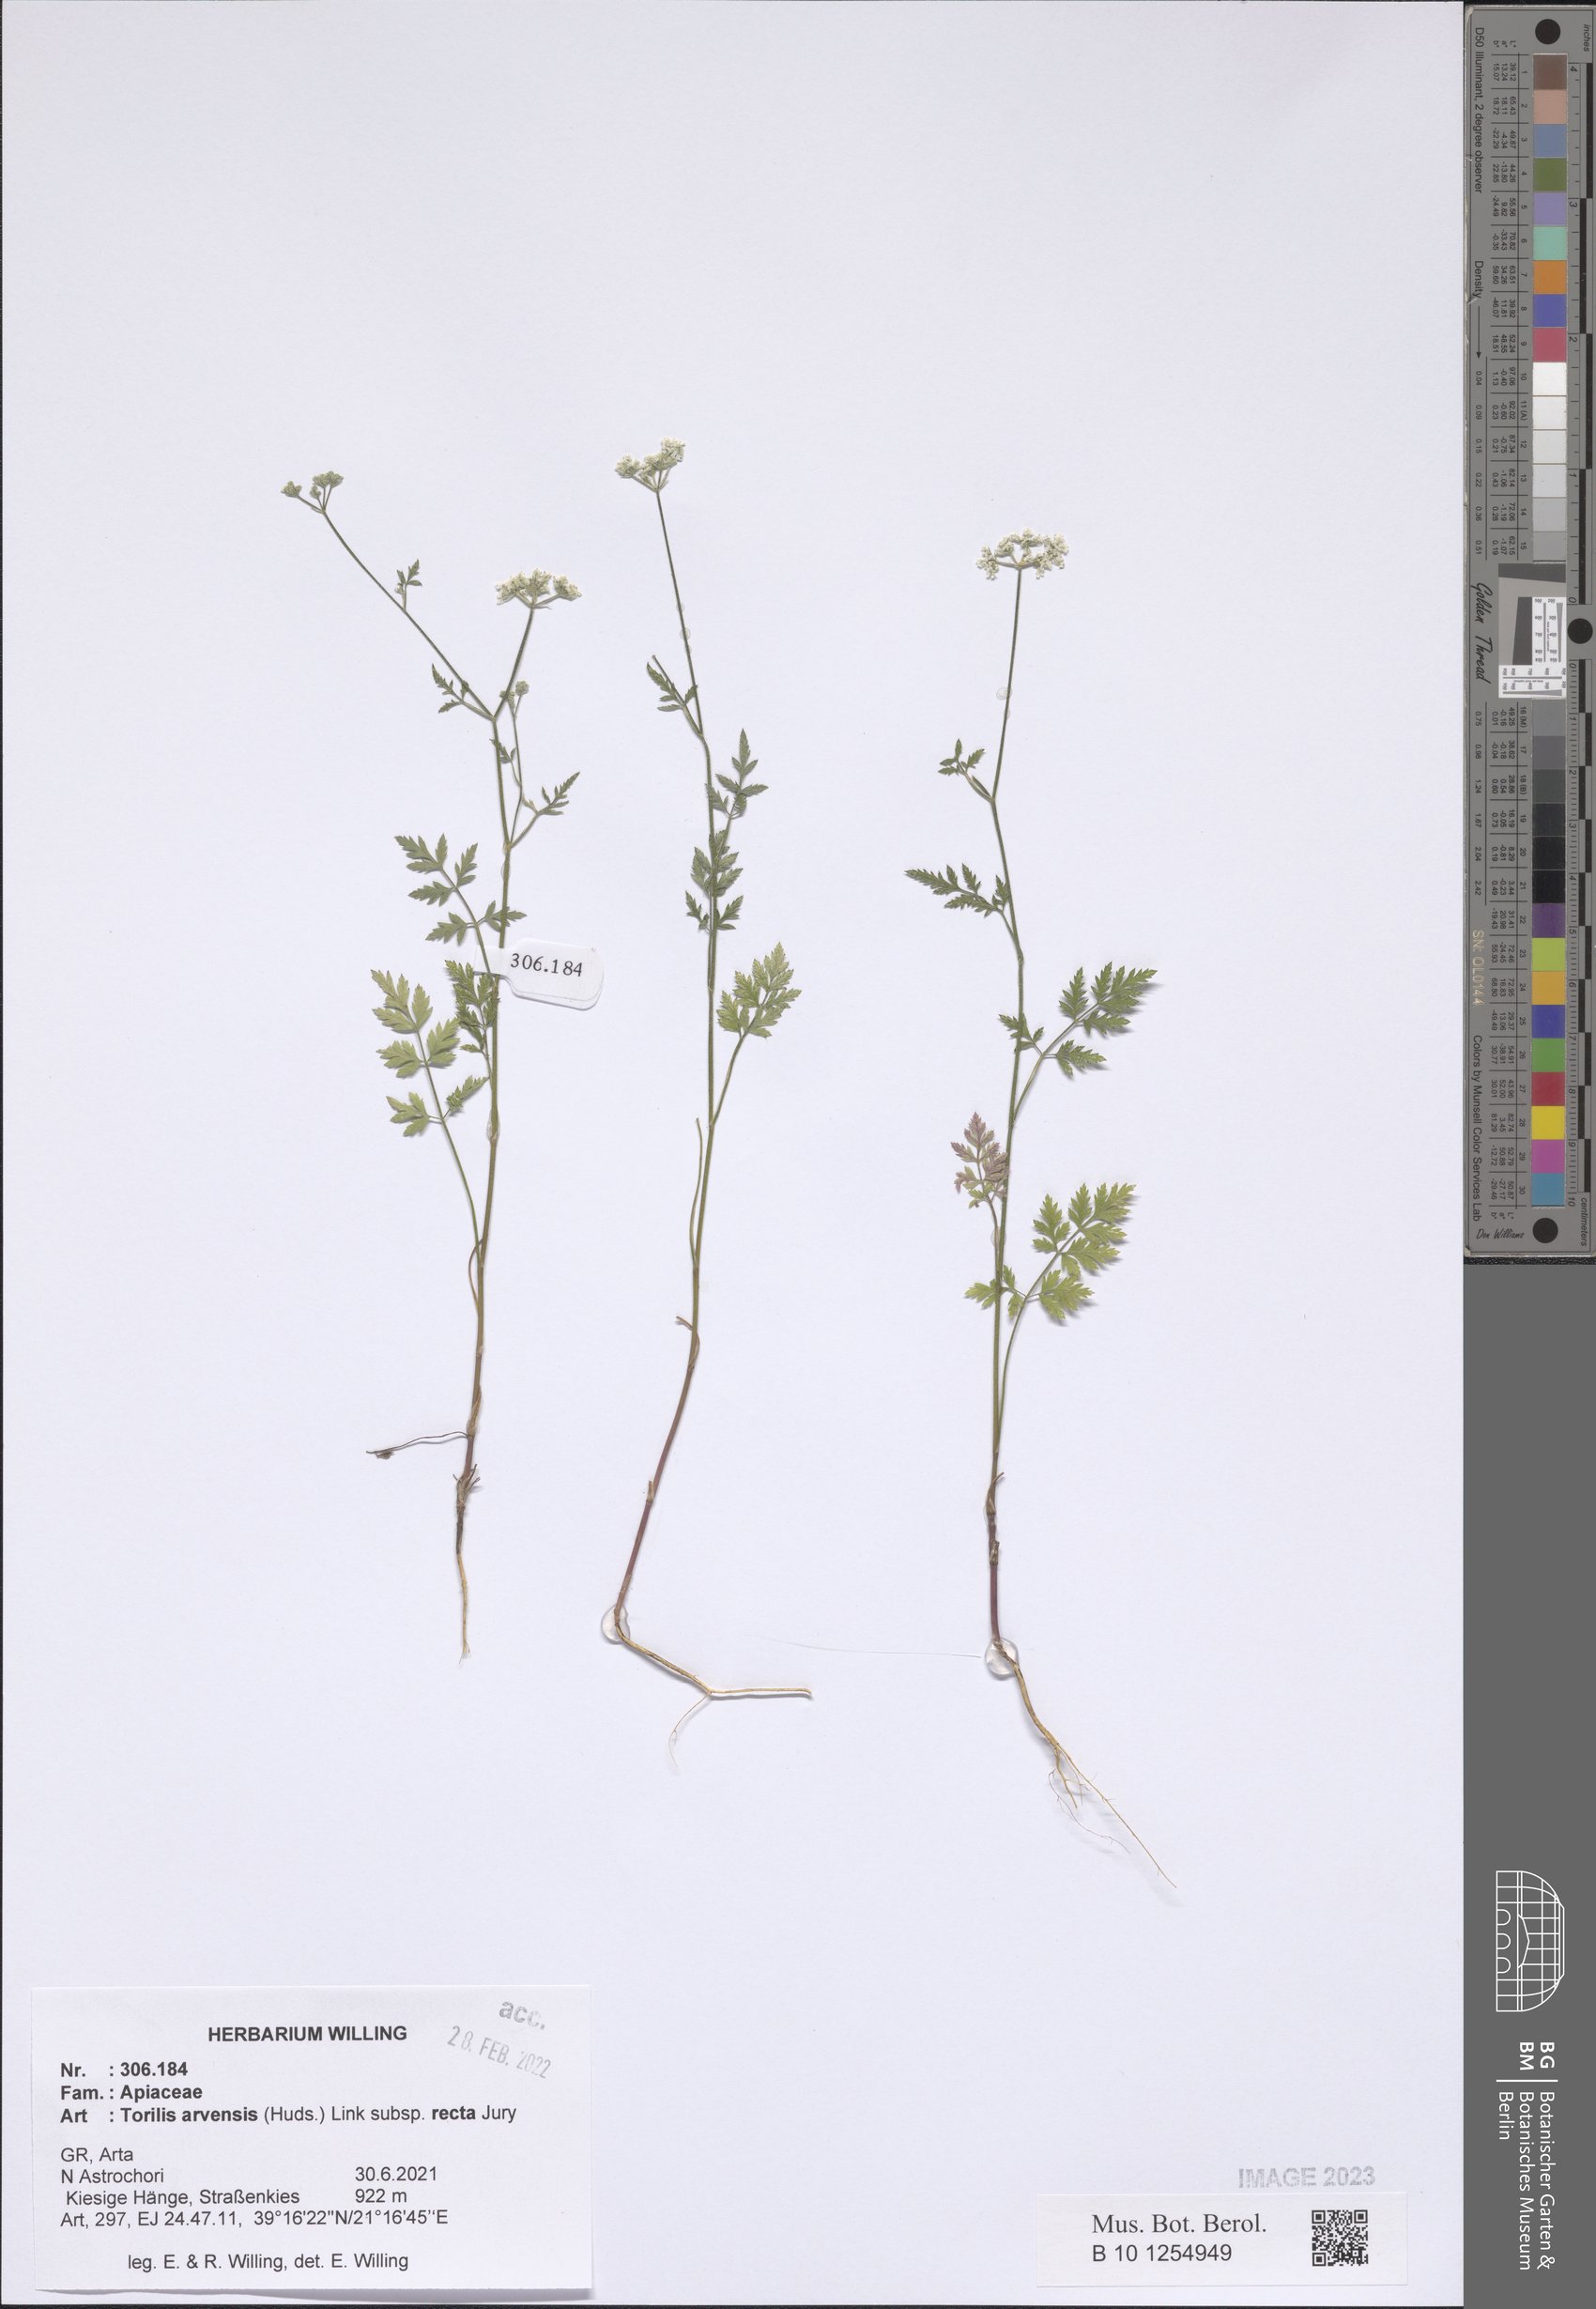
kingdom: Plantae
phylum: Tracheophyta
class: Magnoliopsida
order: Apiales
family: Apiaceae
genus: Torilis
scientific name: Torilis arvensis
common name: Spreading hedge-parsley
